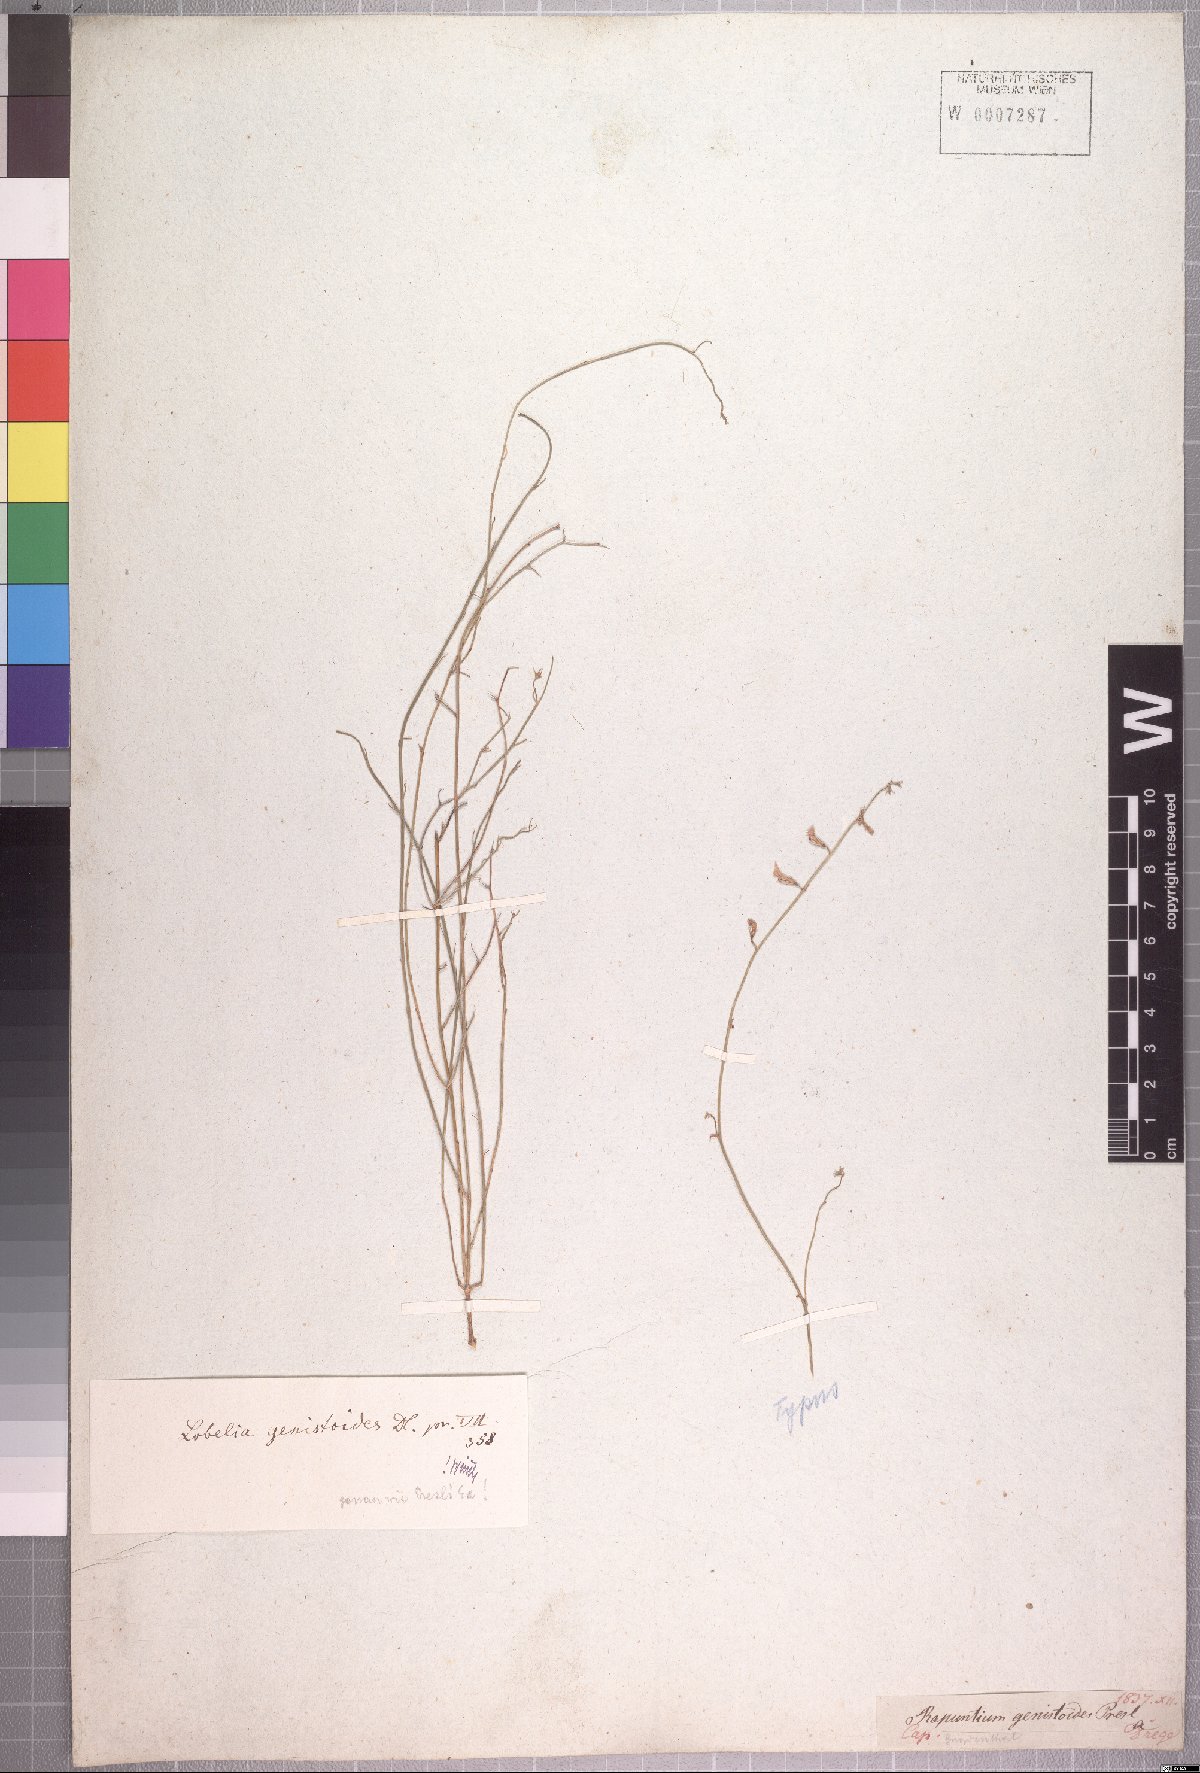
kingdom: Plantae
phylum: Tracheophyta
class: Magnoliopsida
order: Asterales
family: Campanulaceae
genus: Lobelia
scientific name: Lobelia patula
